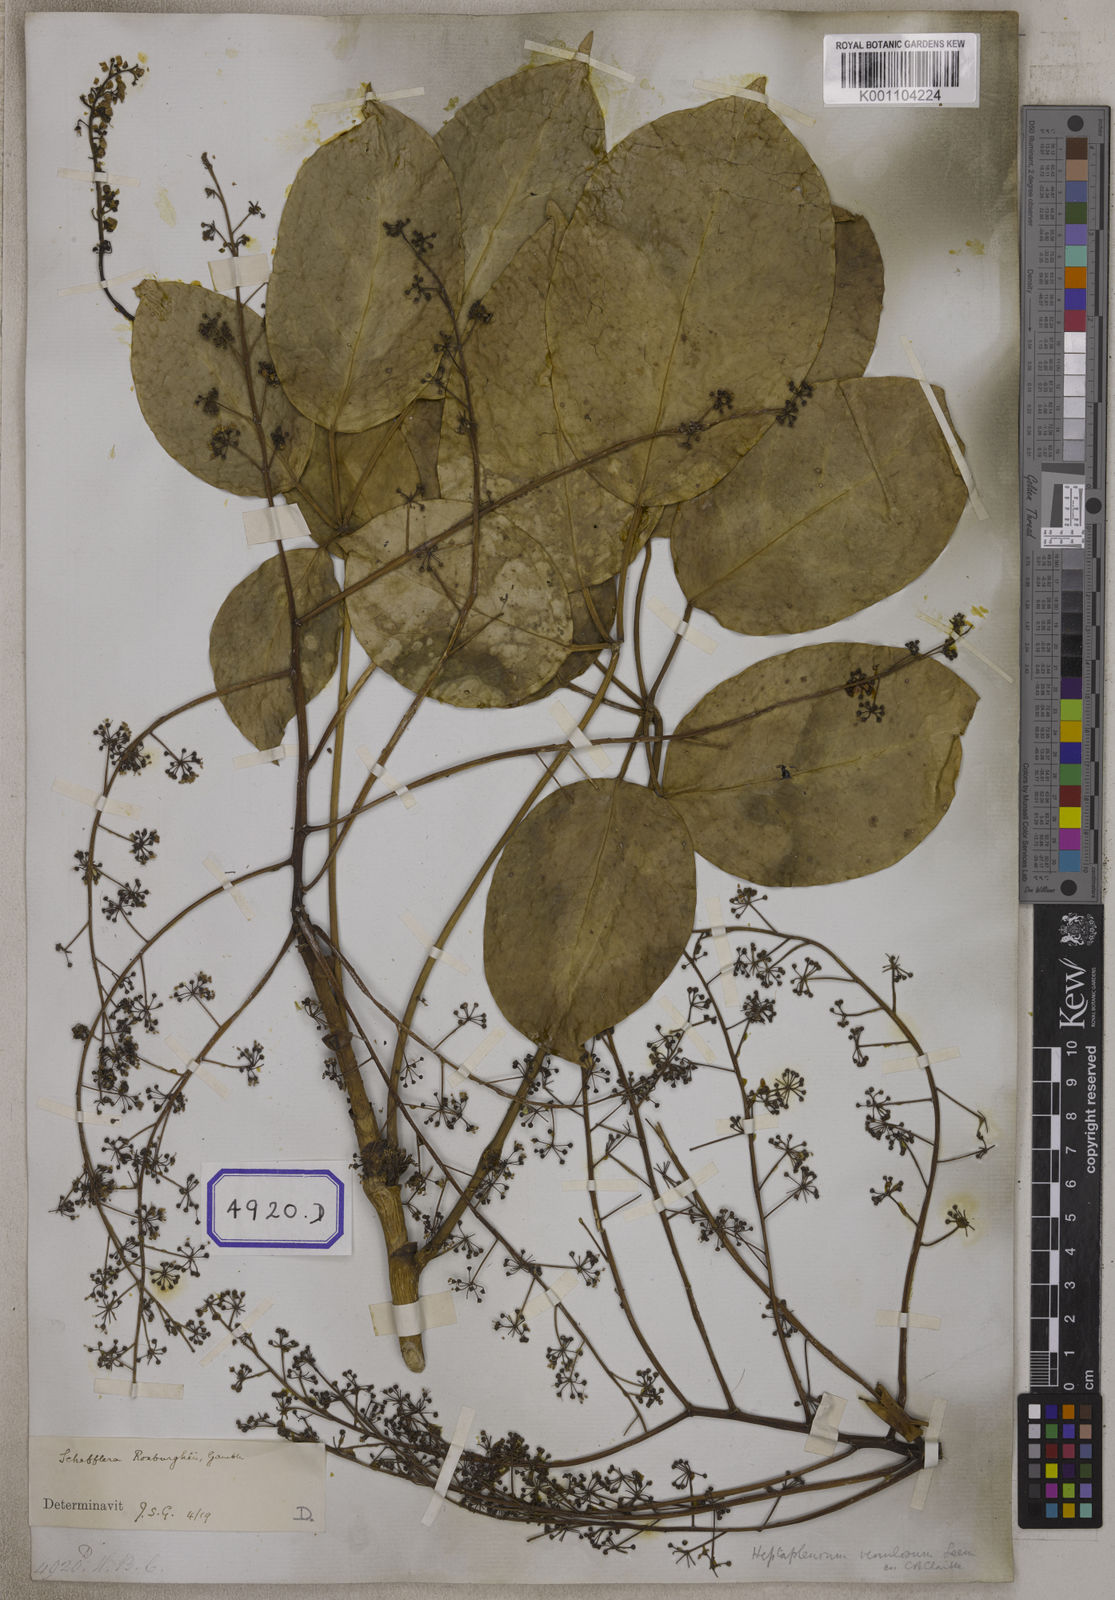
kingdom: Plantae
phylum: Tracheophyta
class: Magnoliopsida
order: Apiales
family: Araliaceae
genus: Hedera
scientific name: Hedera
